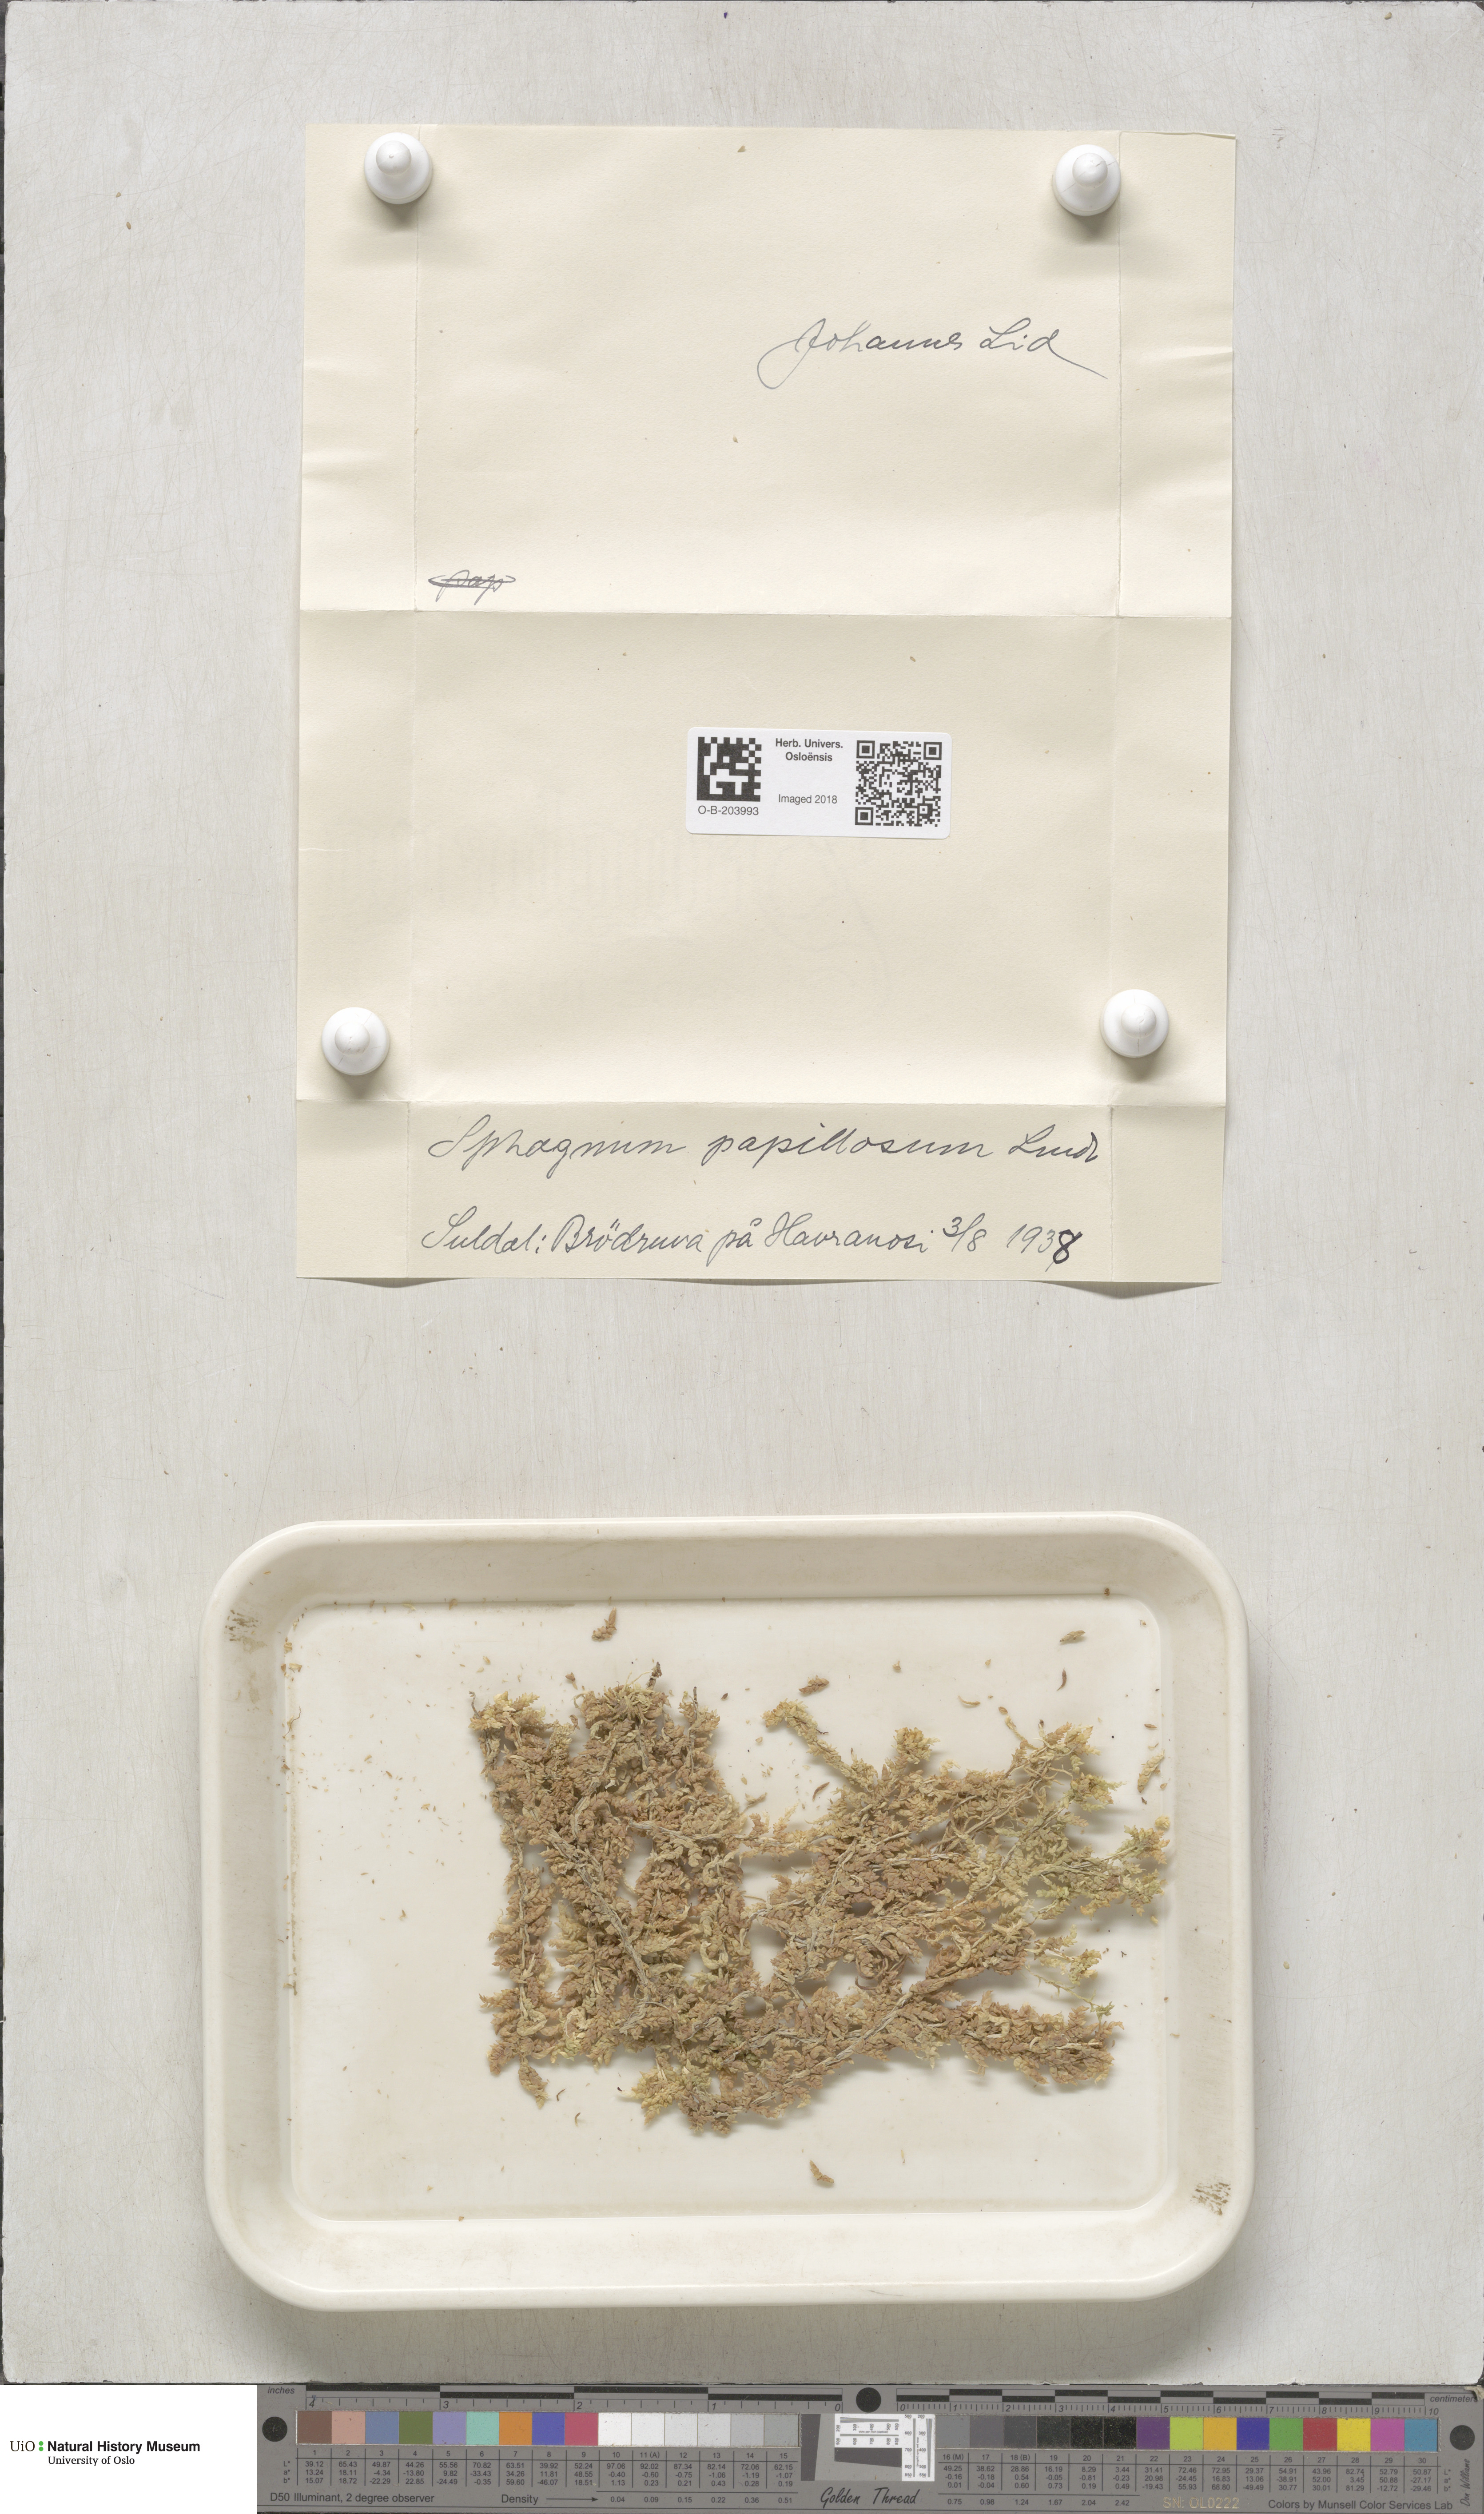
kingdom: Plantae
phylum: Bryophyta
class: Sphagnopsida
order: Sphagnales
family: Sphagnaceae
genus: Sphagnum
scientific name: Sphagnum papillosum
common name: Papillose peat moss
